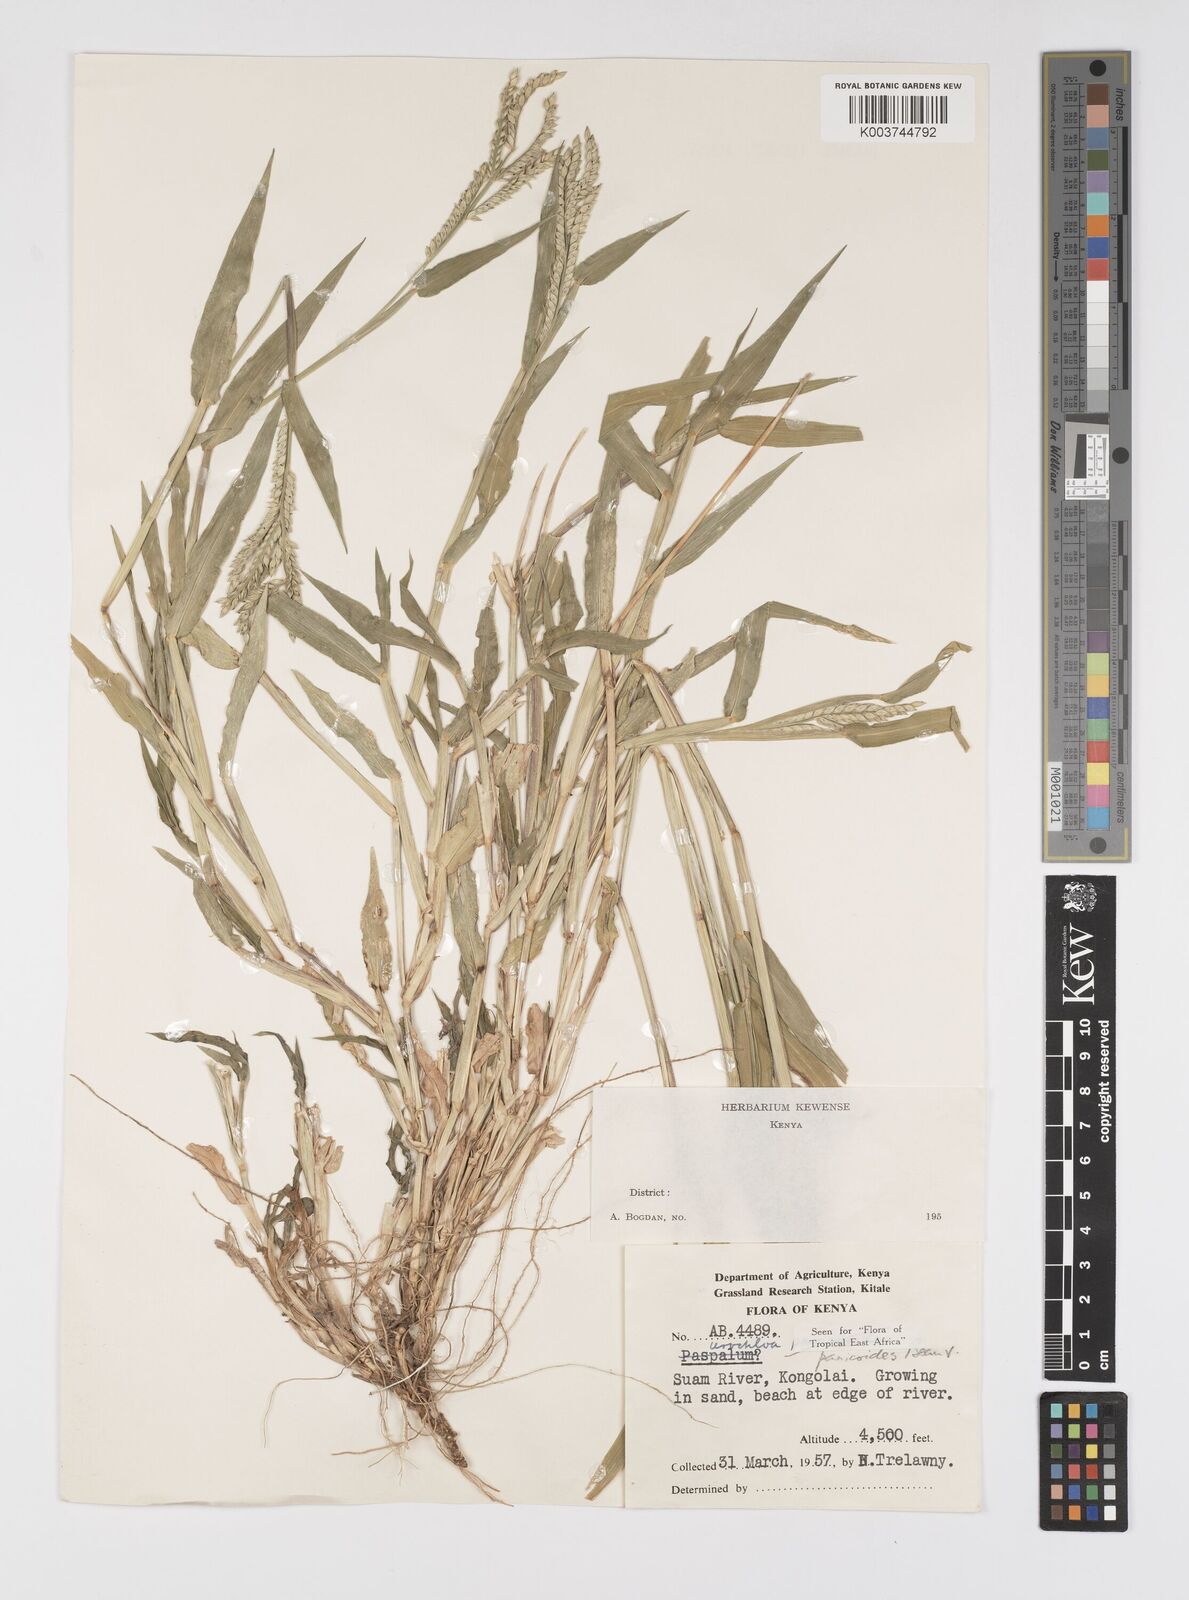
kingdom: Plantae
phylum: Tracheophyta
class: Liliopsida
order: Poales
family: Poaceae
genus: Urochloa
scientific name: Urochloa panicoides
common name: Sharp-flowered signal-grass
